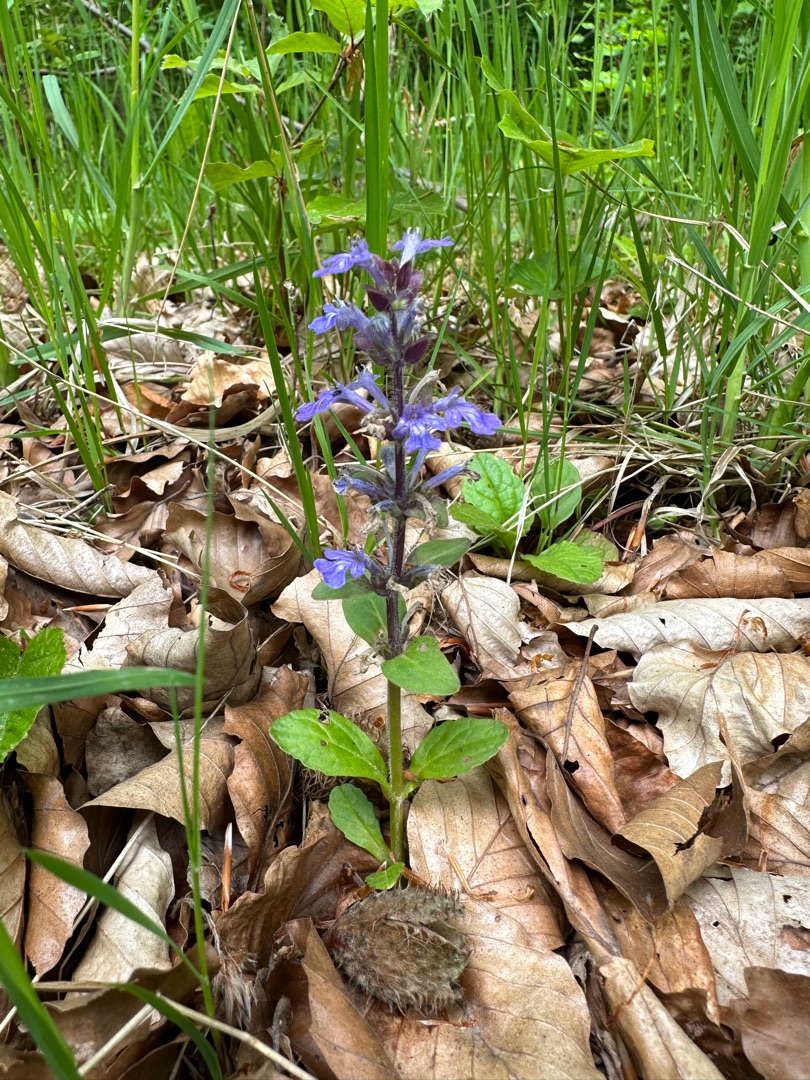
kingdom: Plantae
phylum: Tracheophyta
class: Magnoliopsida
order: Lamiales
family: Lamiaceae
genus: Ajuga
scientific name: Ajuga reptans
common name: Krybende læbeløs
